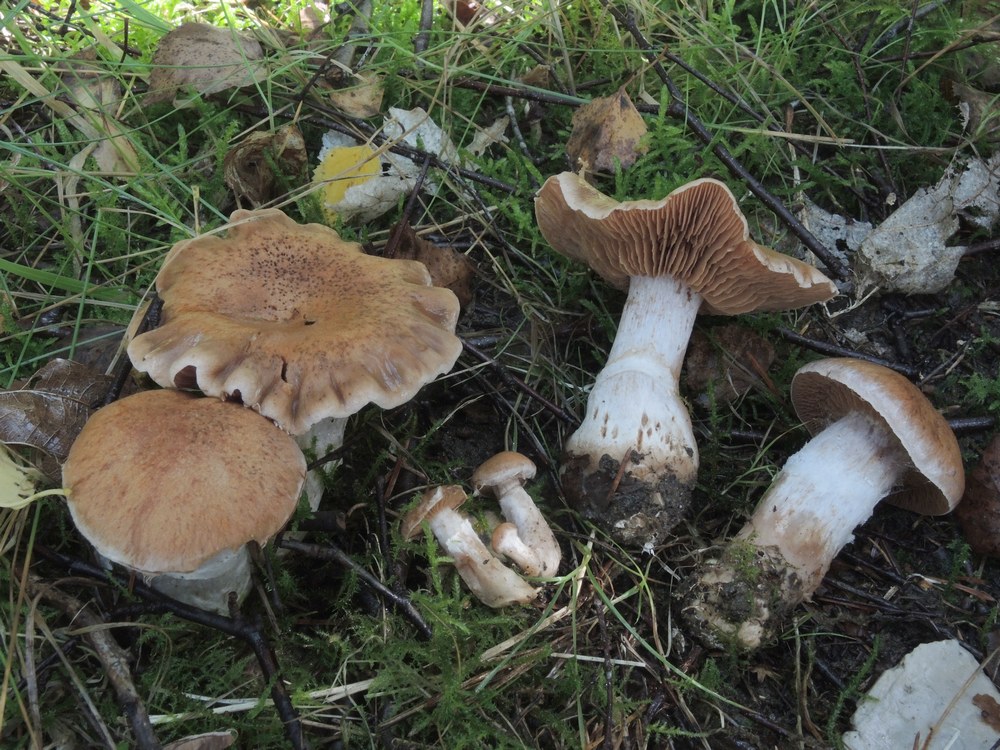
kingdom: Fungi
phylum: Basidiomycota
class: Agaricomycetes
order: Agaricales
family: Cortinariaceae
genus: Cortinarius
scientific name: Cortinarius bivelus
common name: orangebrun slørhat
